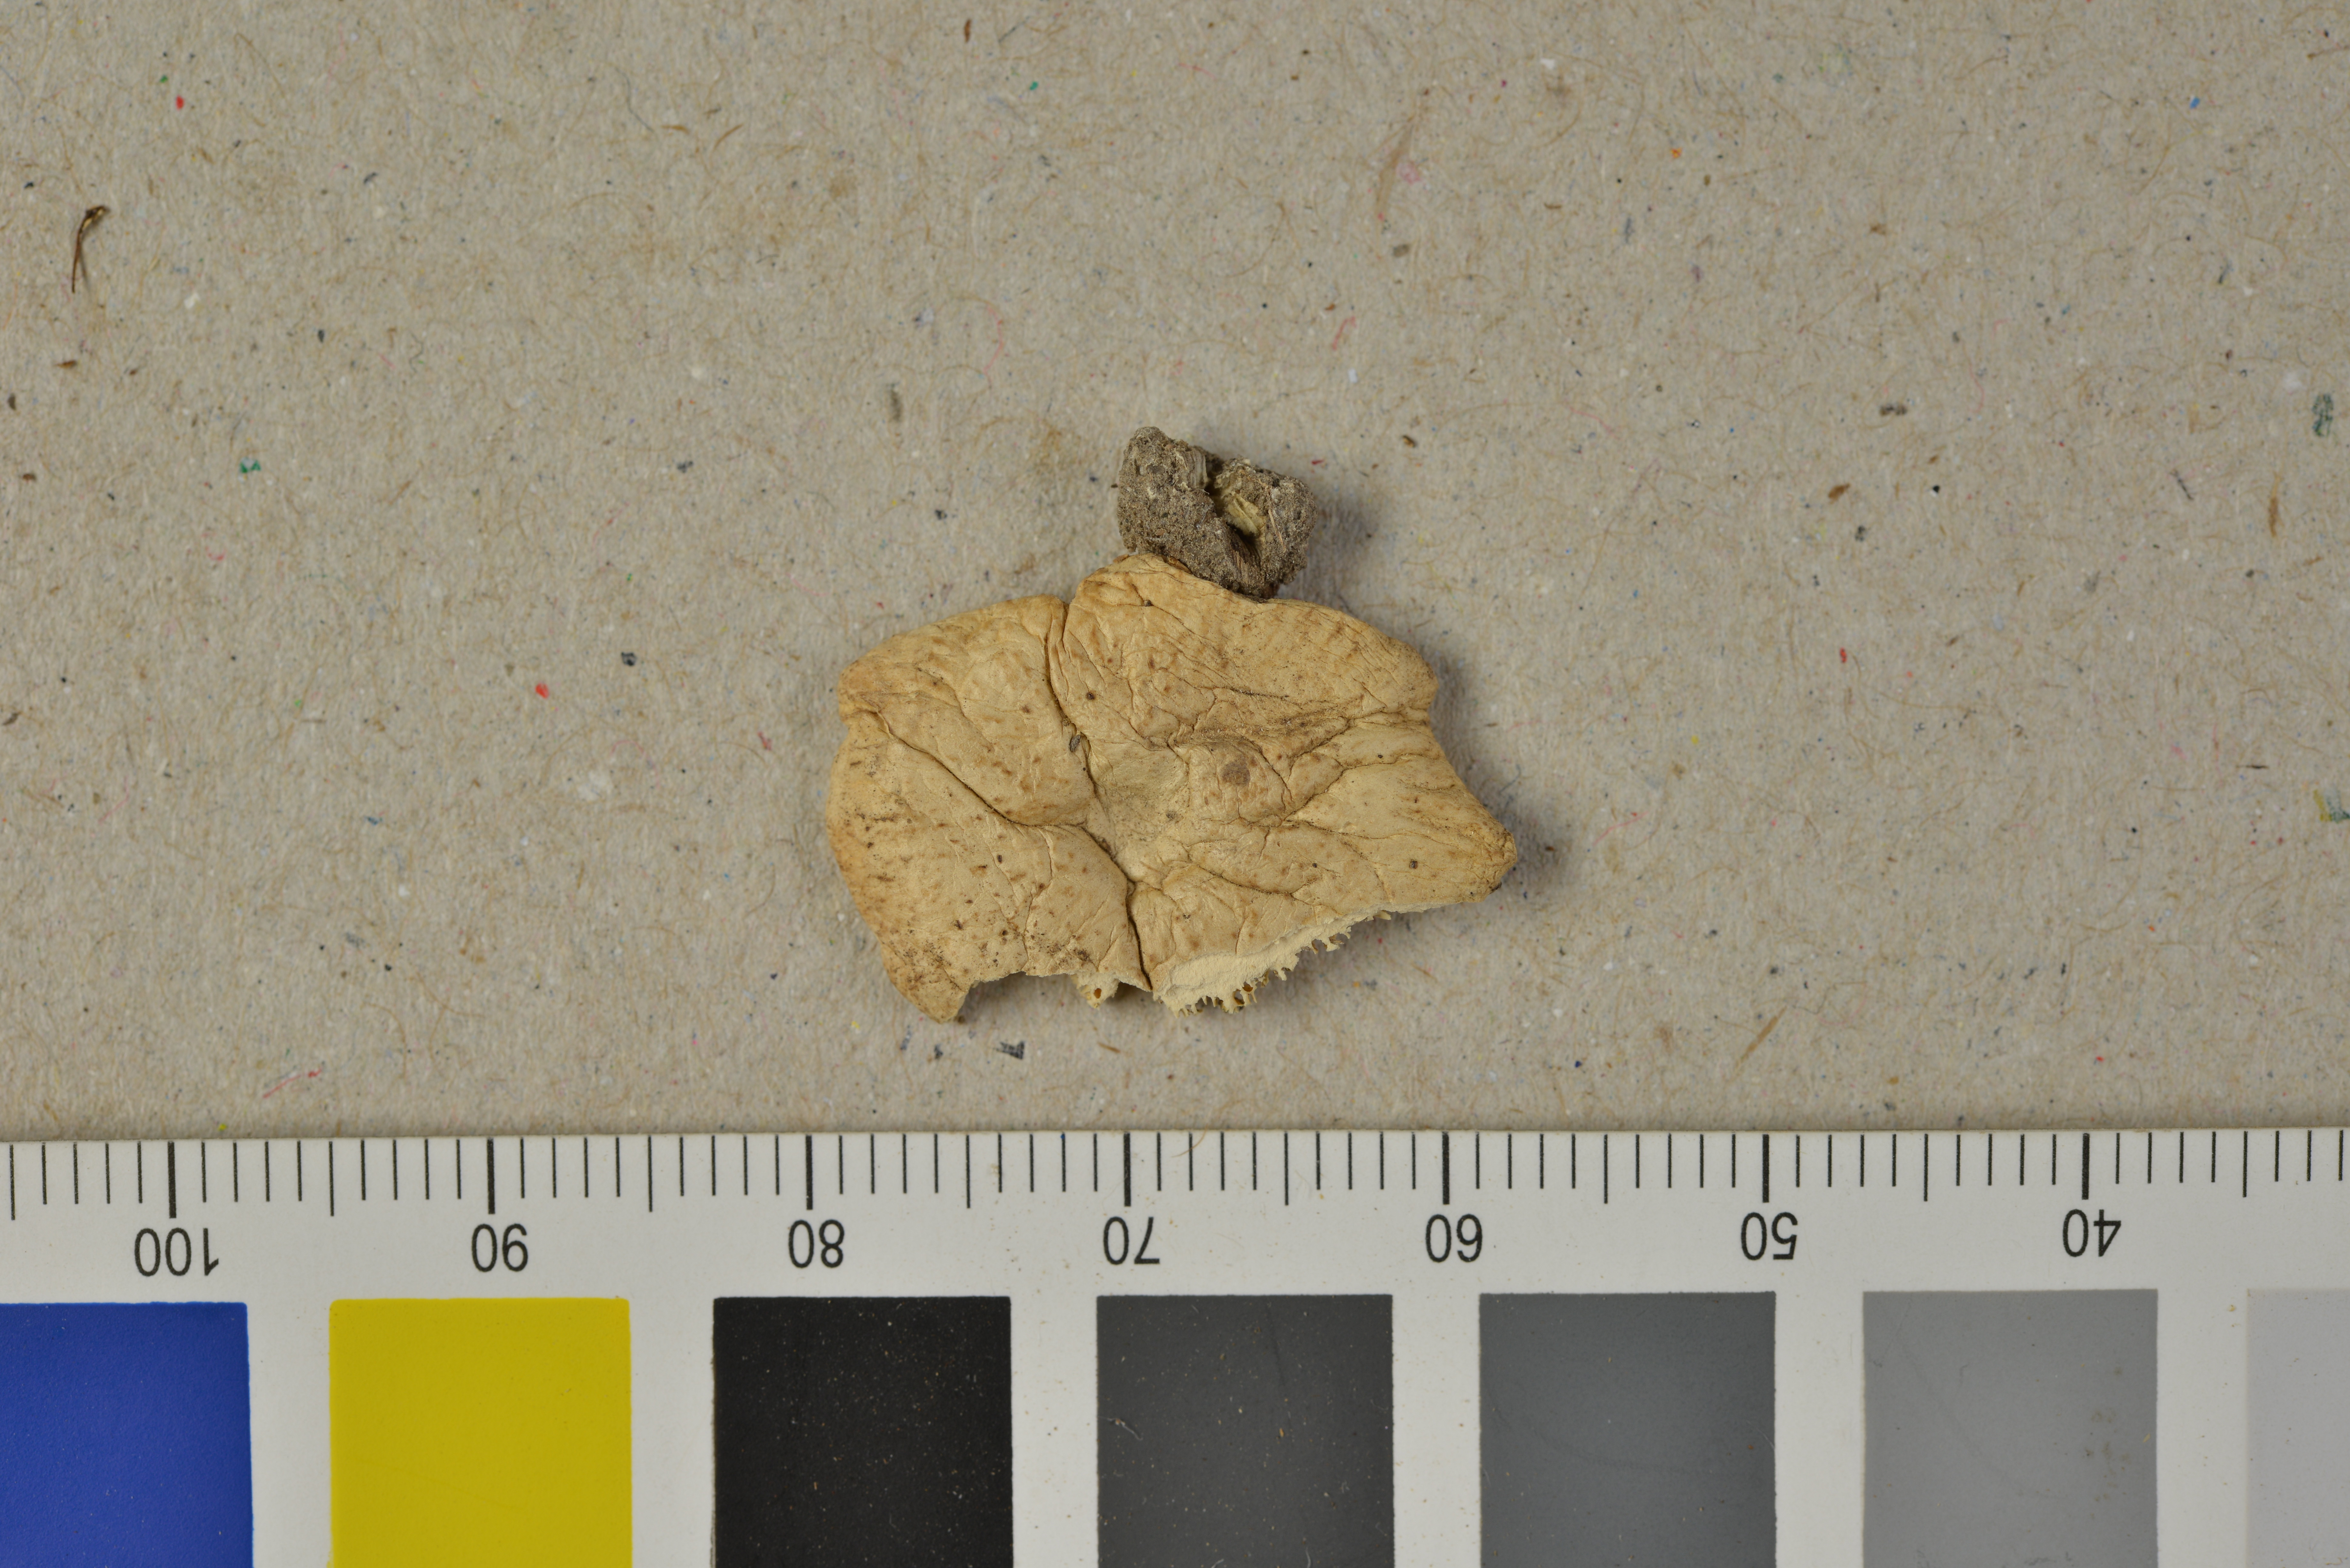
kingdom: Fungi
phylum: Basidiomycota
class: Agaricomycetes
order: Polyporales
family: Polyporaceae
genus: Picipes
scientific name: Picipes rhizophilus
